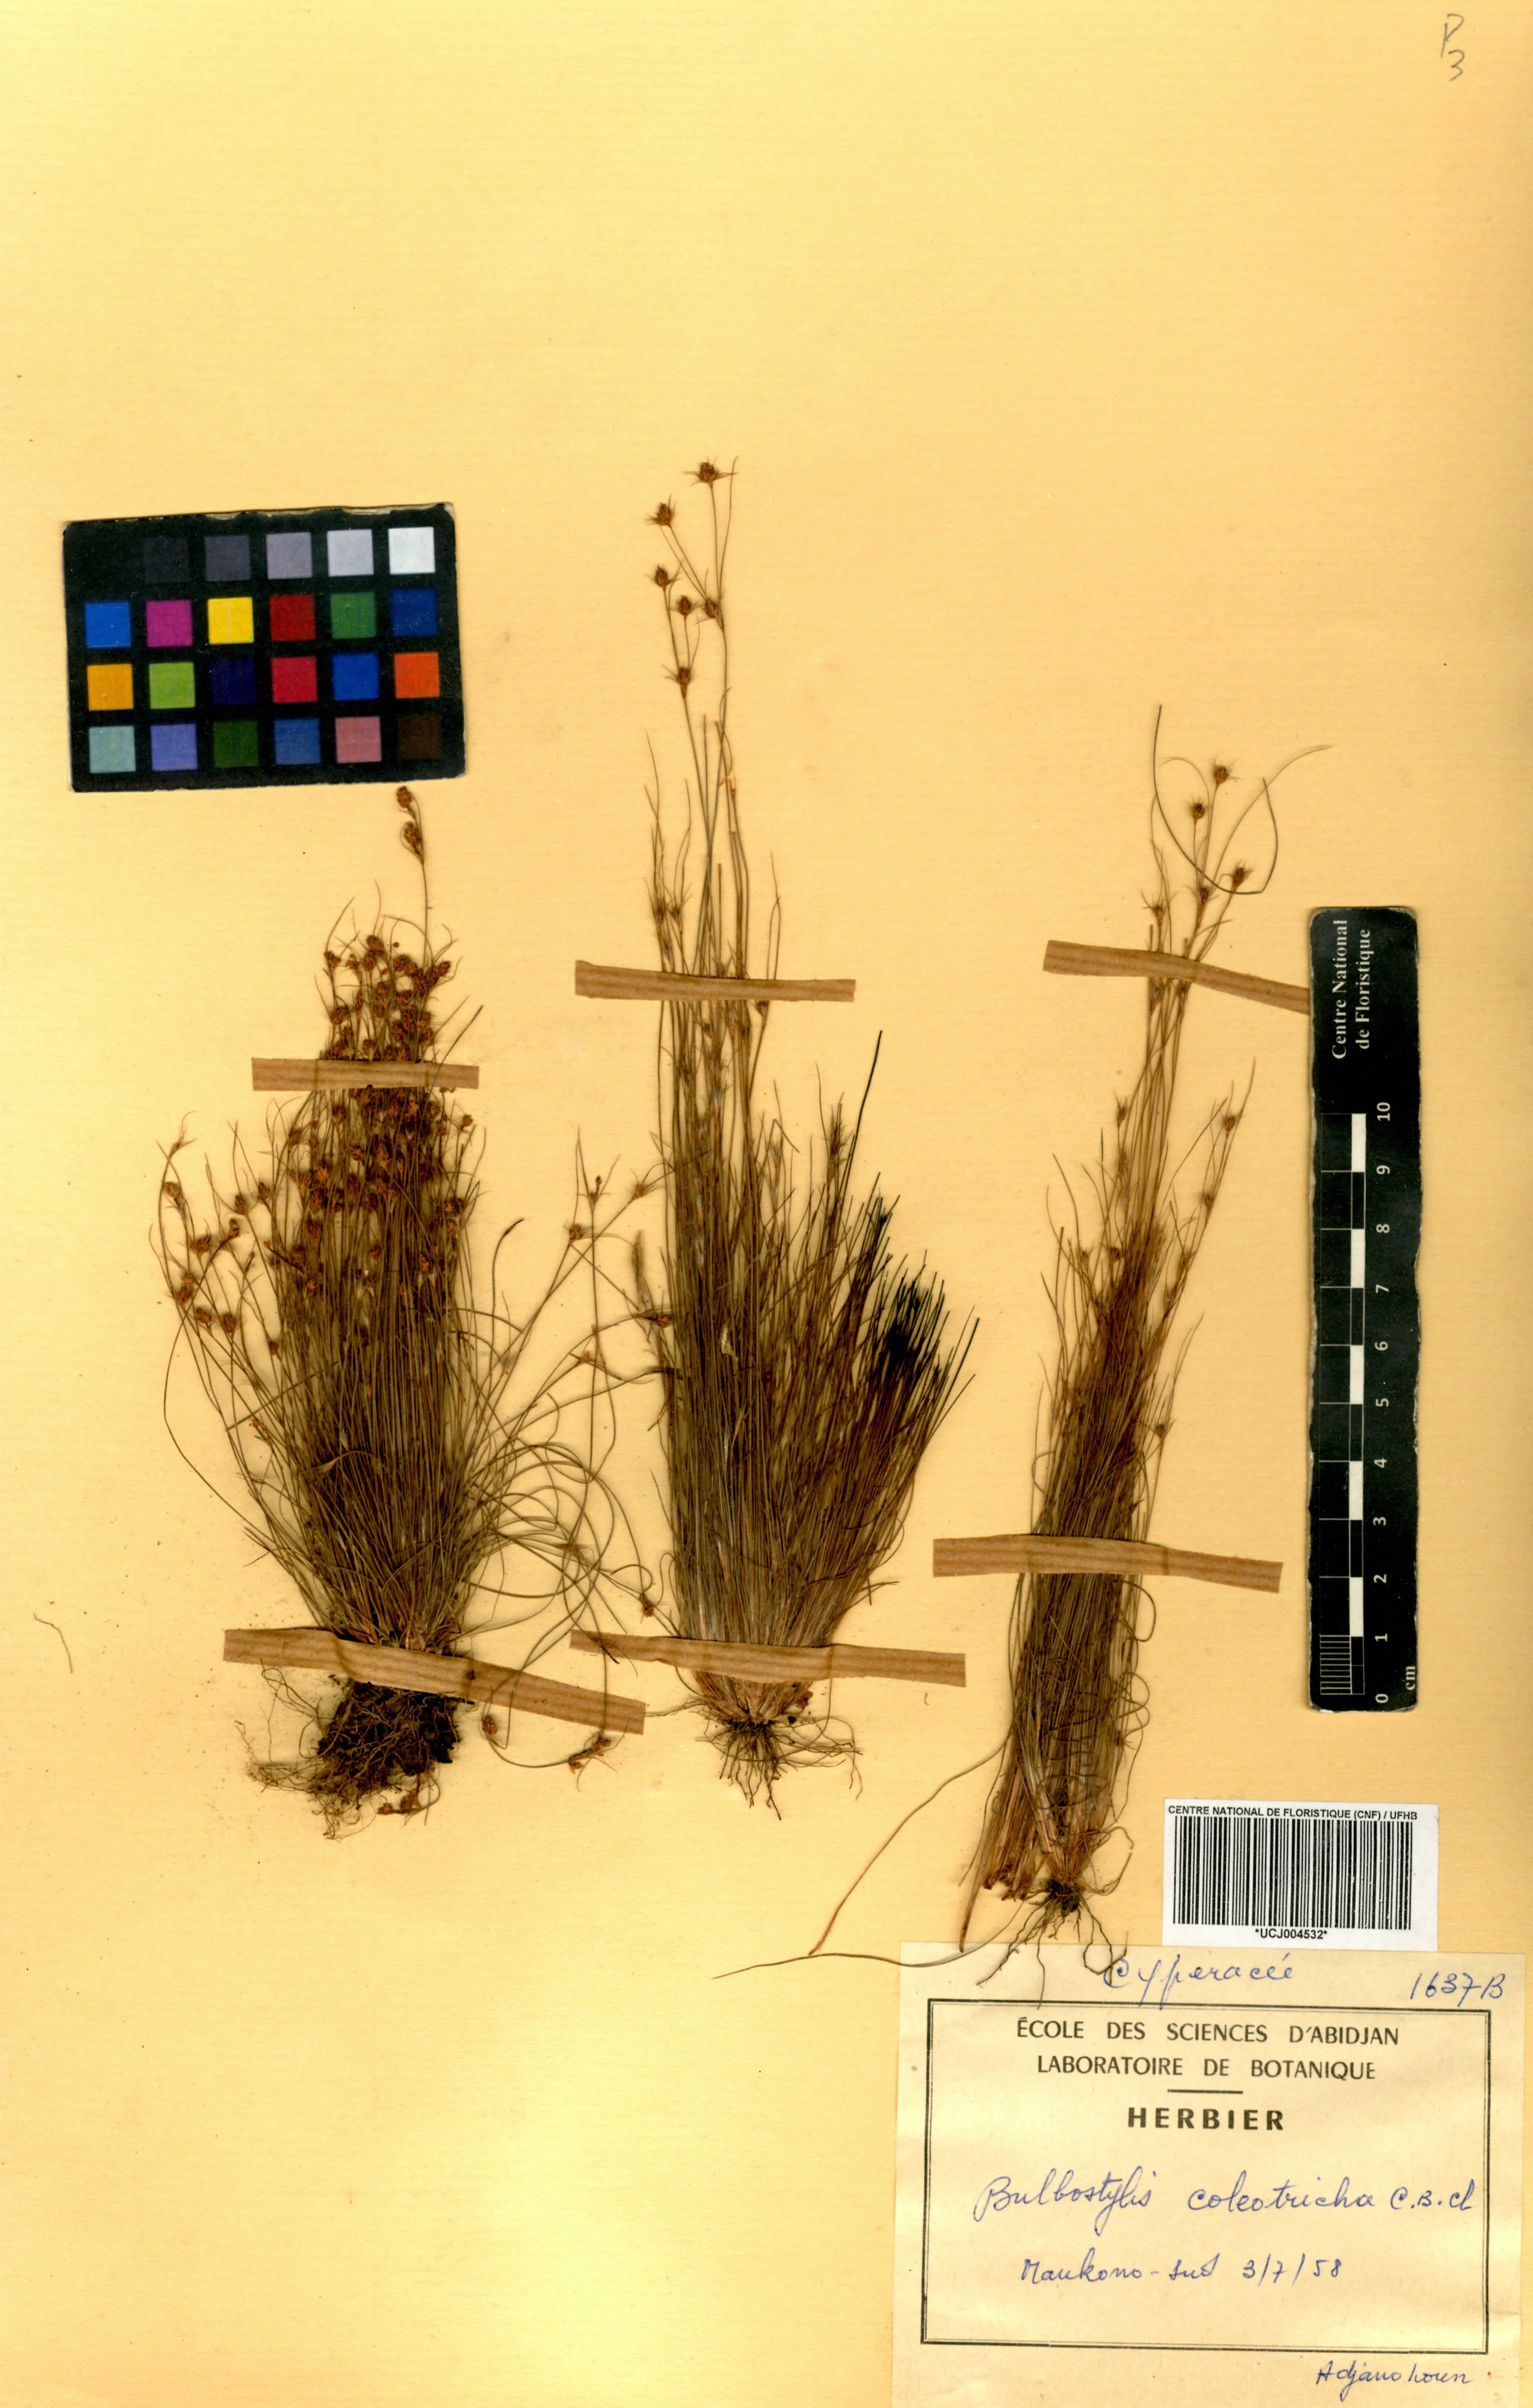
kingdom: Plantae
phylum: Tracheophyta
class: Liliopsida
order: Poales
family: Cyperaceae
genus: Bulbostylis
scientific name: Bulbostylis coleotricha
